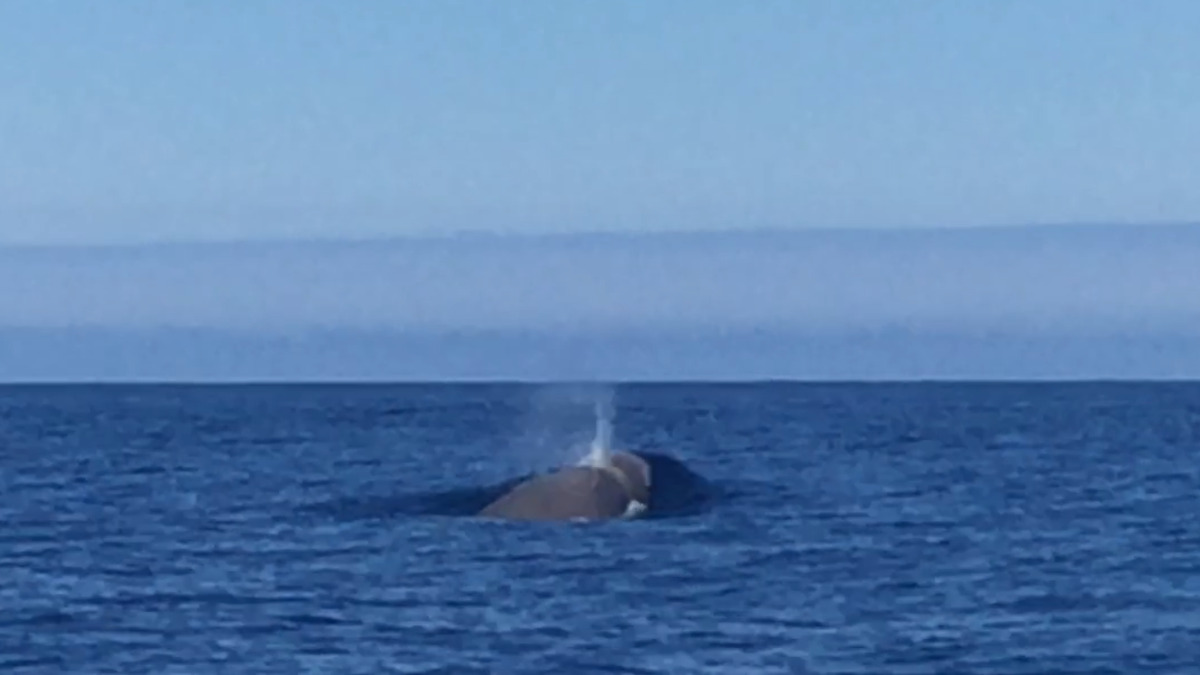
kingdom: Animalia
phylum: Chordata
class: Mammalia
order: Cetacea
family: Hyperoodontidae
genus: Hyperoodon
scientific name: Hyperoodon ampullatus
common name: Northern bottlenose whale
